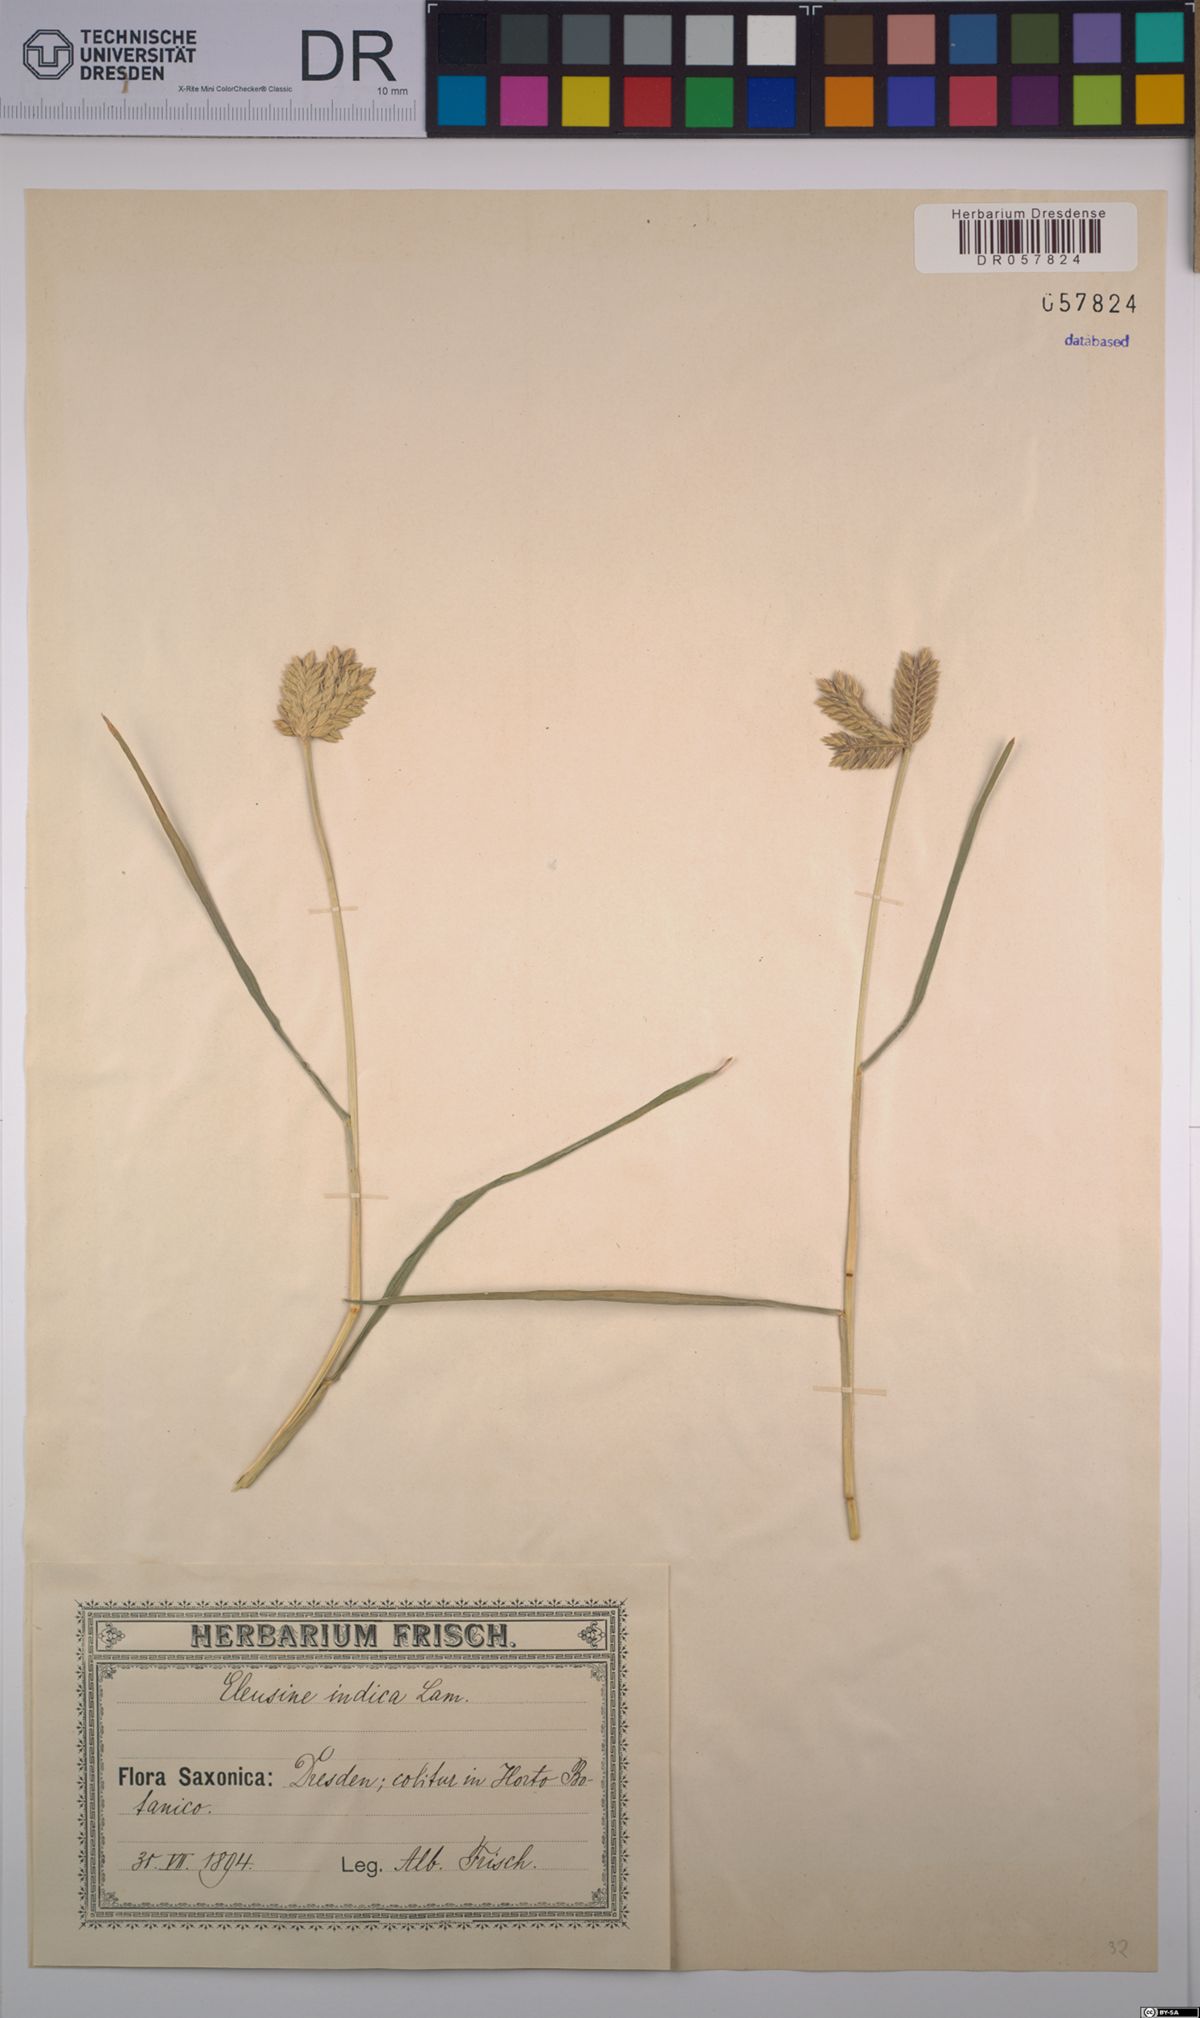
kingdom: Plantae
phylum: Tracheophyta
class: Liliopsida
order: Poales
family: Poaceae
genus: Eleusine
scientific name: Eleusine indica
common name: Yard-grass
